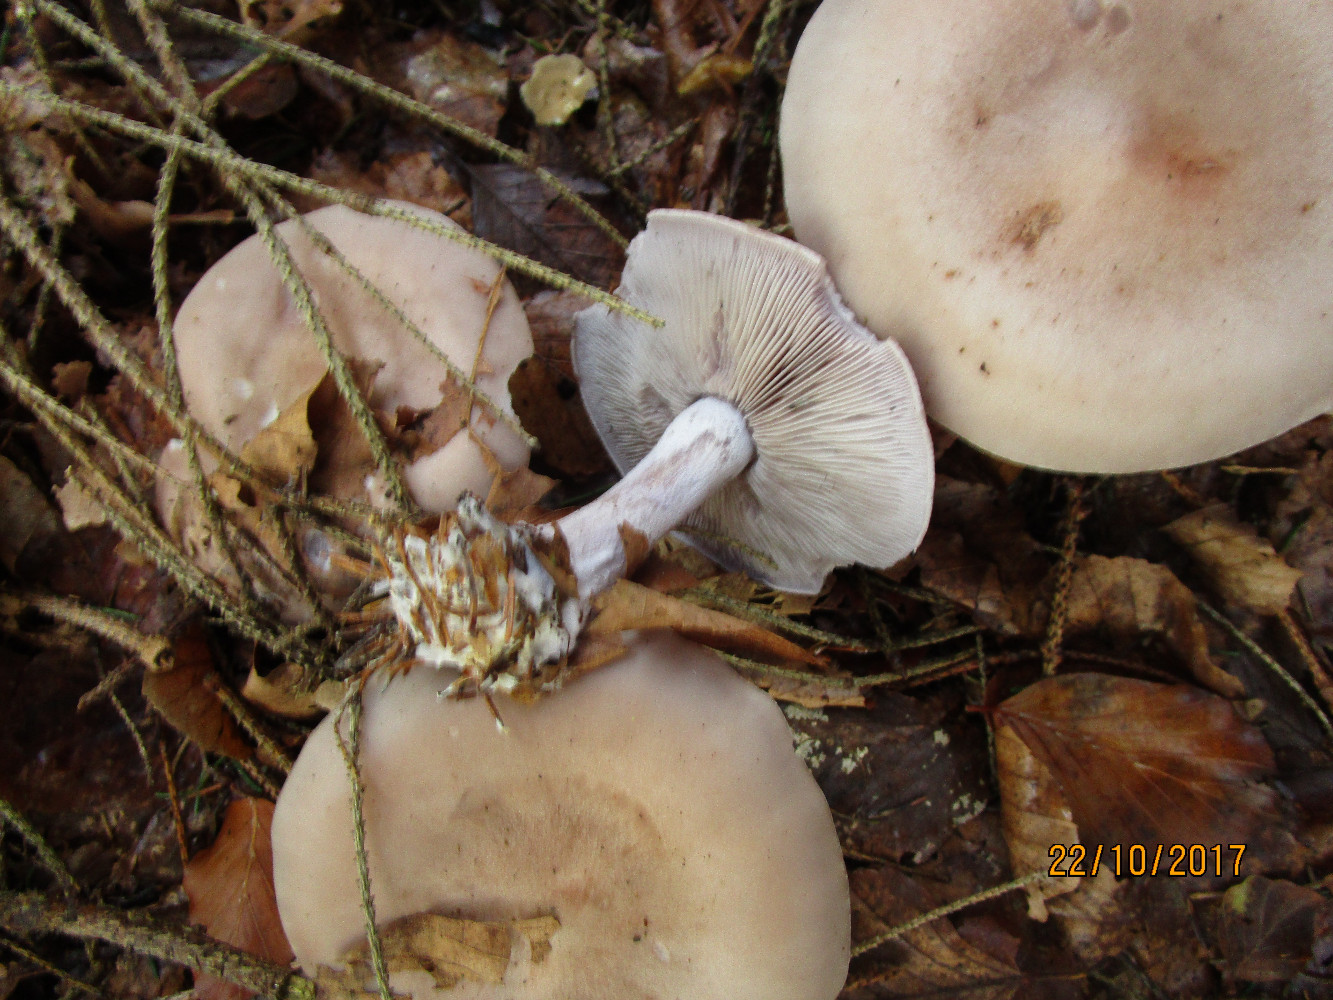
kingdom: Fungi
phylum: Basidiomycota
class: Agaricomycetes
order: Agaricales
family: Tricholomataceae
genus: Lepista
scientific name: Lepista nuda
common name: violet hekseringshat
